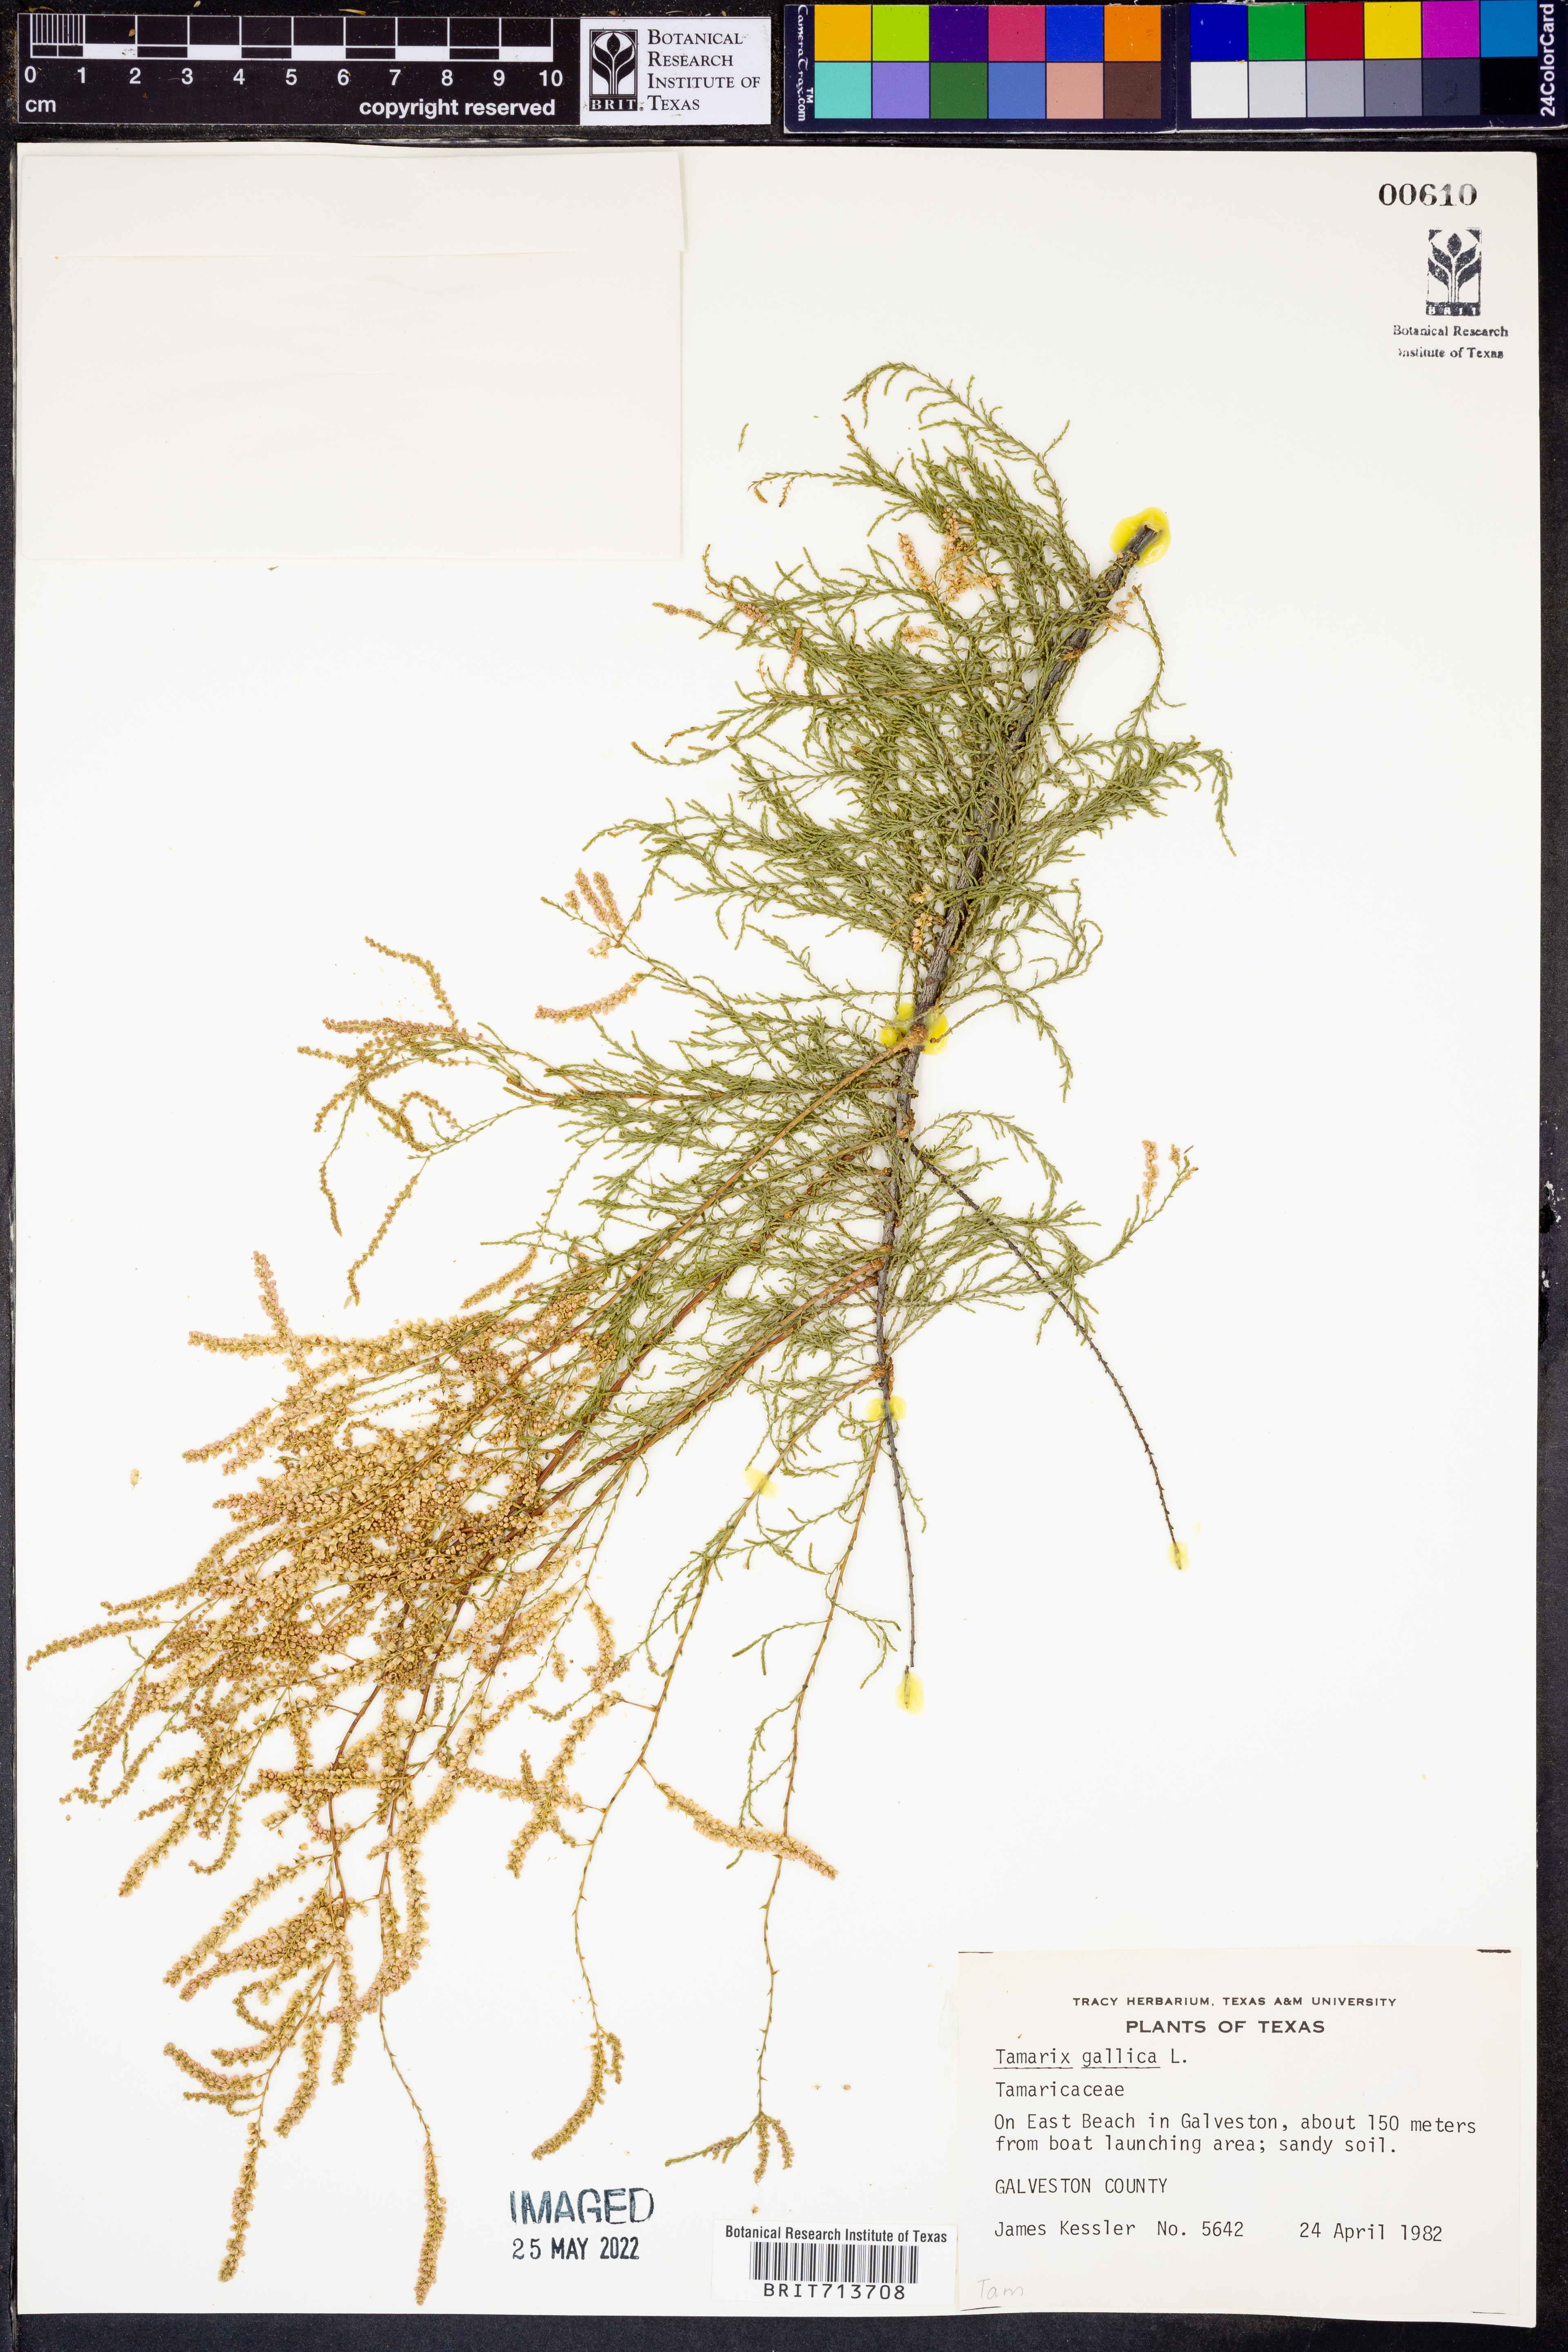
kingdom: Plantae
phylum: Tracheophyta
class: Magnoliopsida
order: Caryophyllales
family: Tamaricaceae
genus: Tamarix
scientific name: Tamarix gallica
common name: Tamarisk
